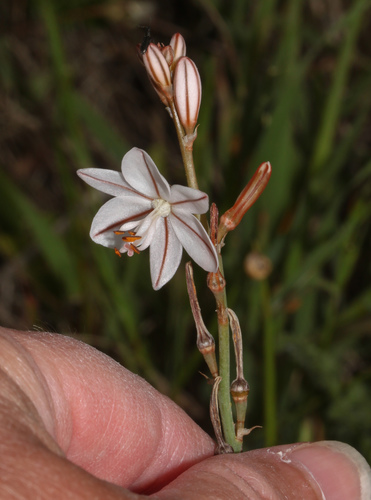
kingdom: Plantae
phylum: Tracheophyta
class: Liliopsida
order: Asparagales
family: Asphodelaceae
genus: Asphodelus
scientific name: Asphodelus fistulosus
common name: Onionweed
